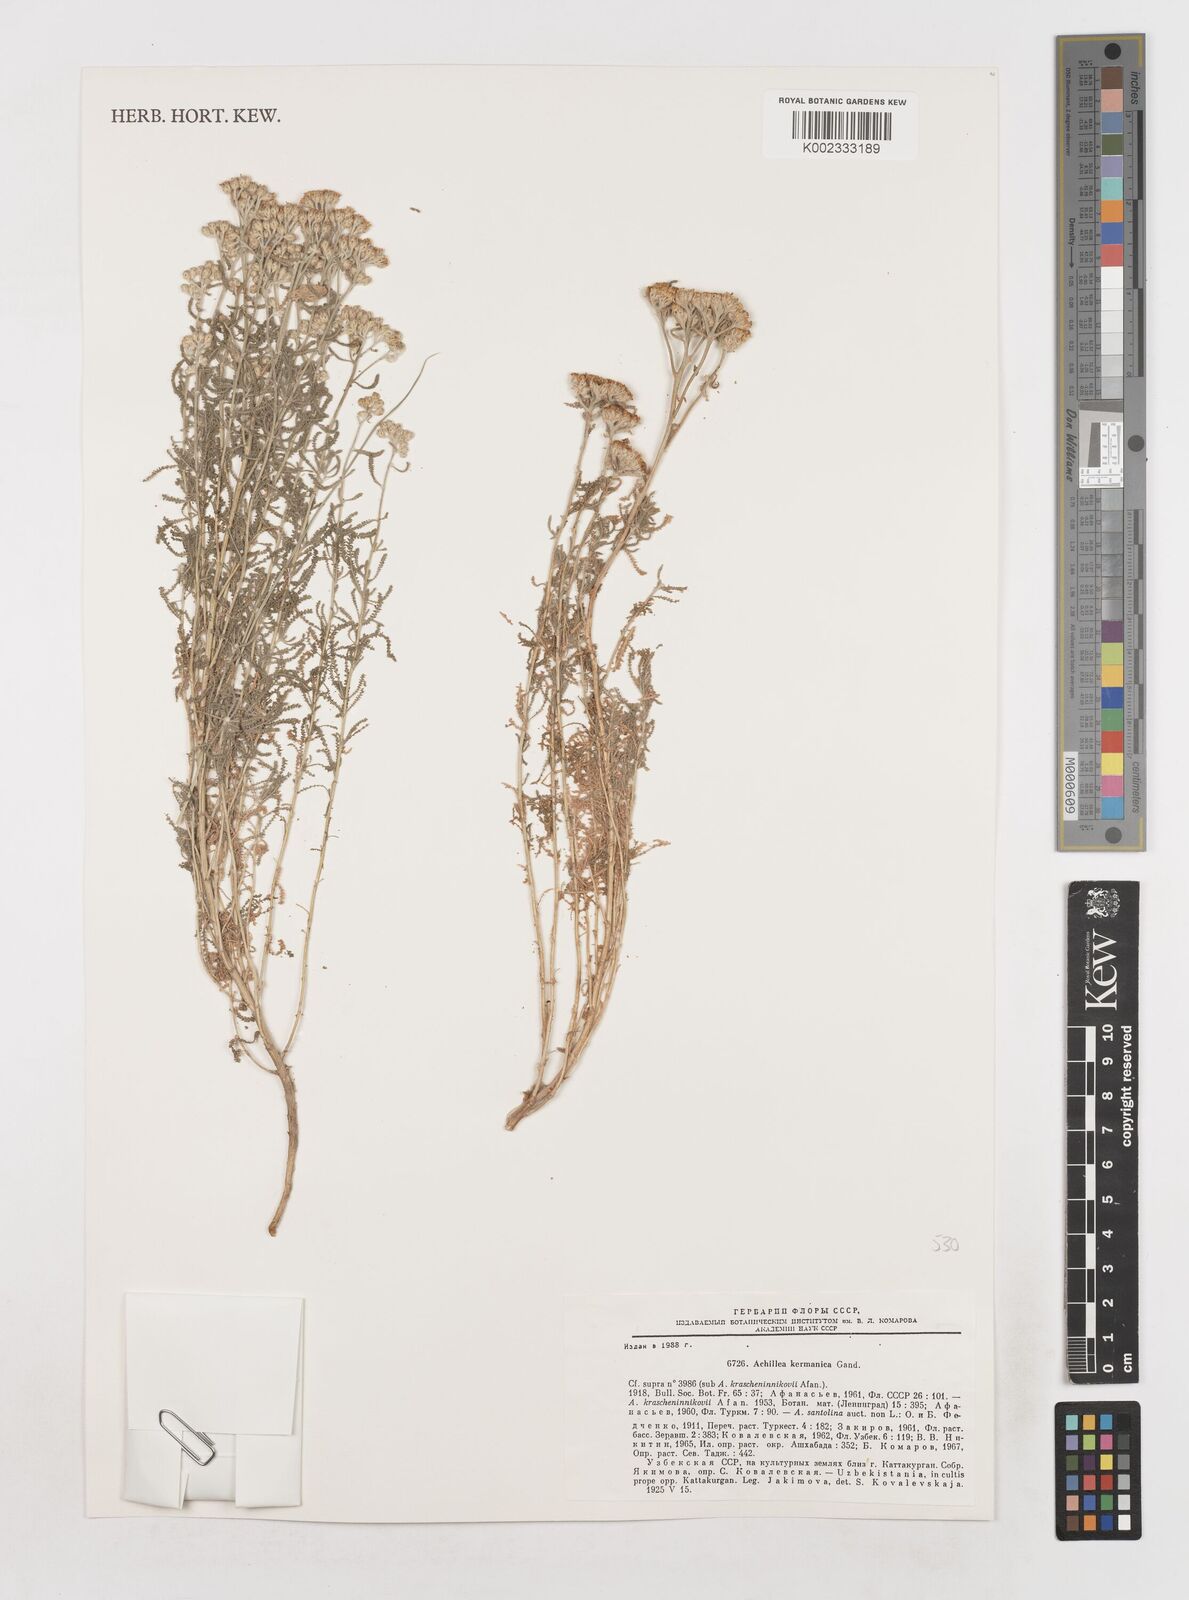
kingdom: Plantae
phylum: Tracheophyta
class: Magnoliopsida
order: Asterales
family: Asteraceae
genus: Achillea
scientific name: Achillea wilhelmsii
